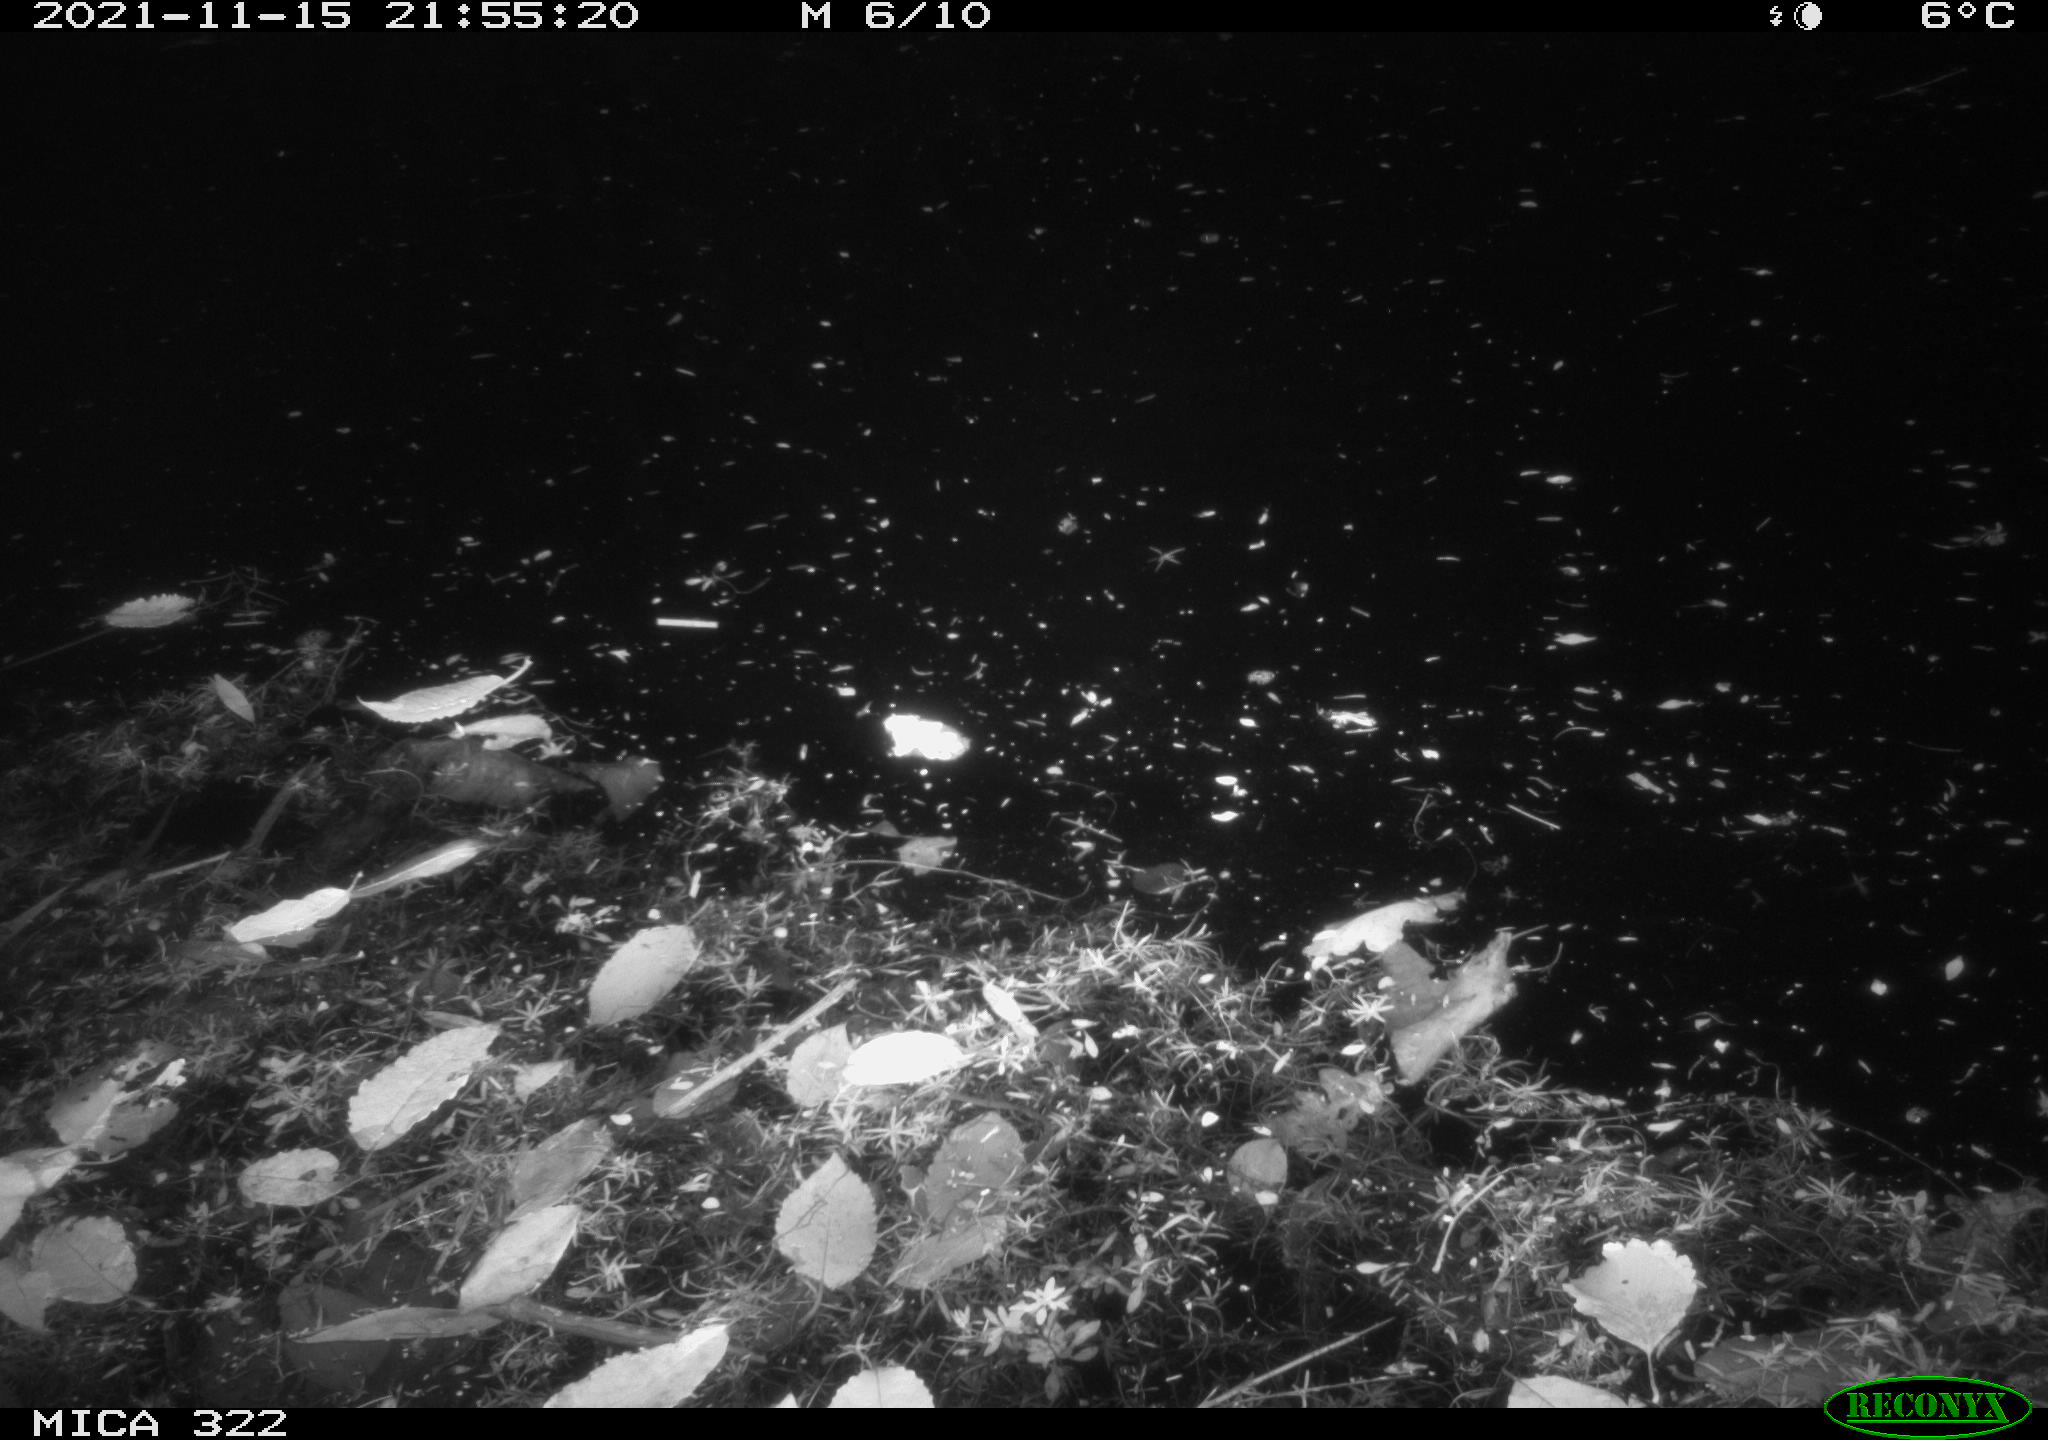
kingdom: Animalia
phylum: Chordata
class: Mammalia
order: Rodentia
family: Muridae
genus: Rattus
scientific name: Rattus norvegicus
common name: Brown rat
